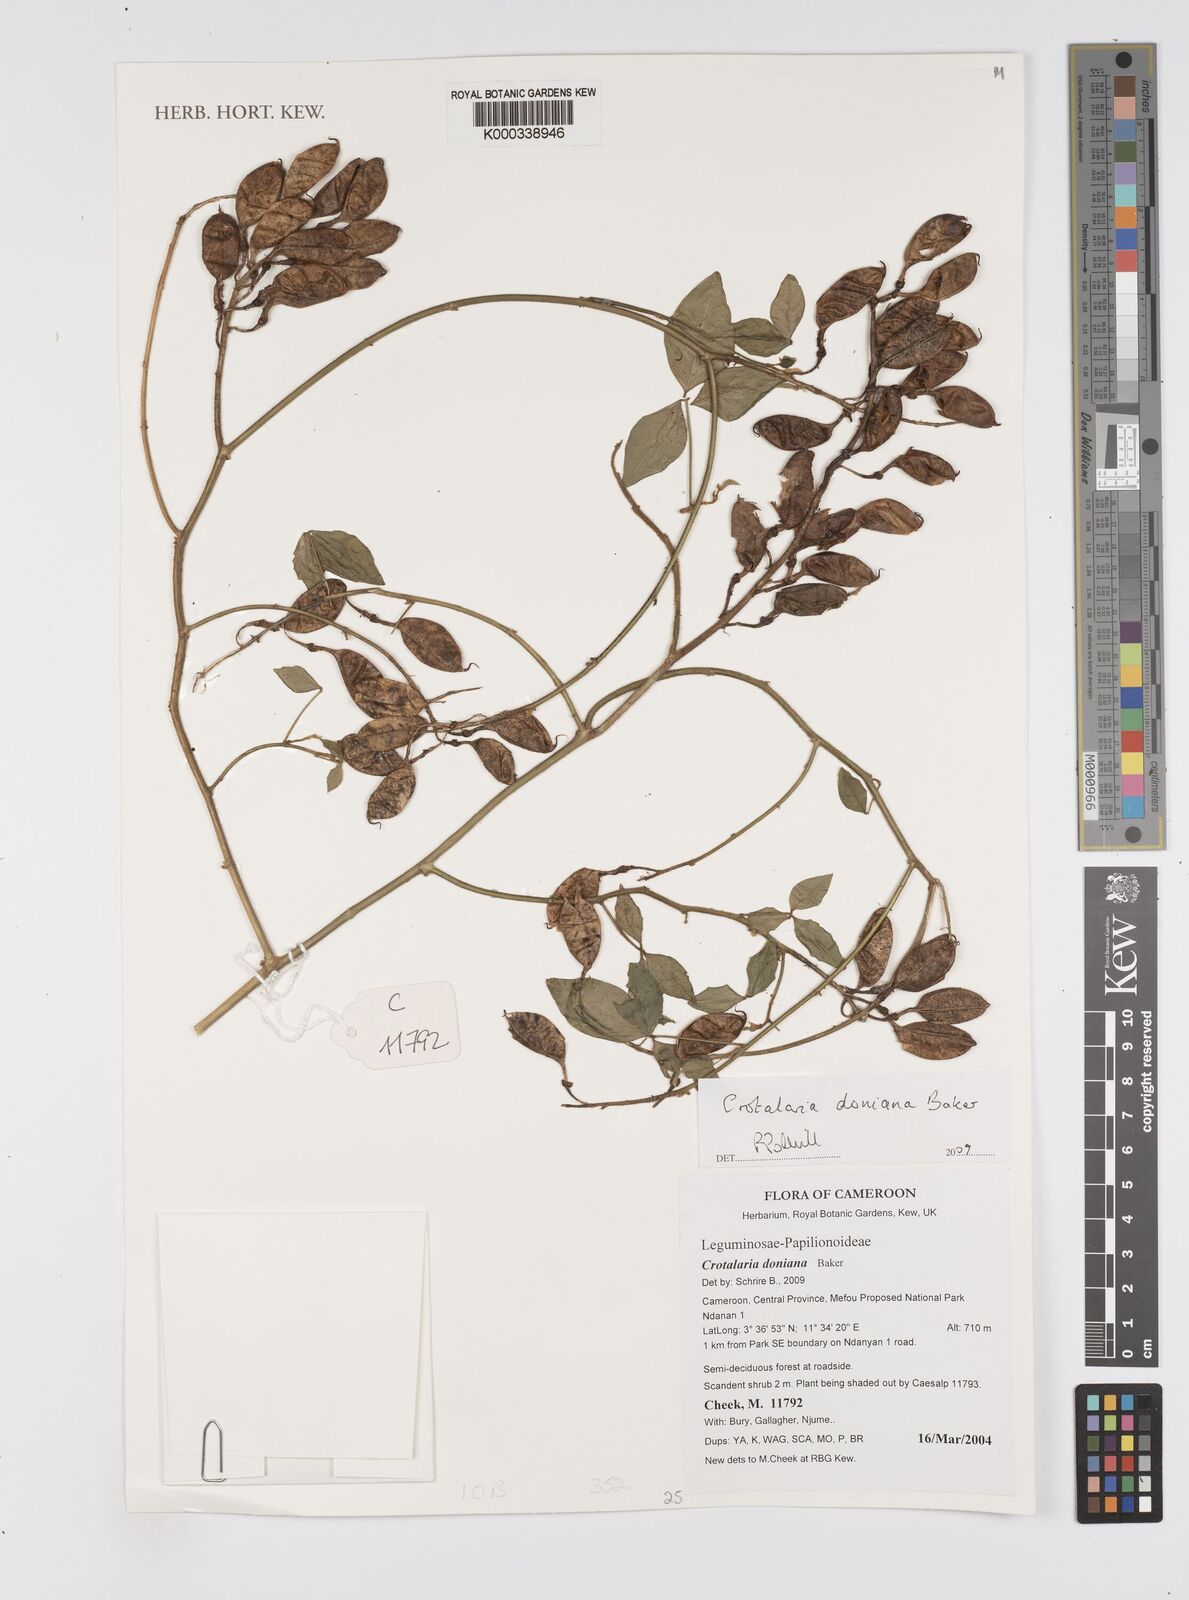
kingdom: Plantae
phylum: Tracheophyta
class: Magnoliopsida
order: Fabales
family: Fabaceae
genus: Crotalaria
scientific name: Crotalaria doniana
